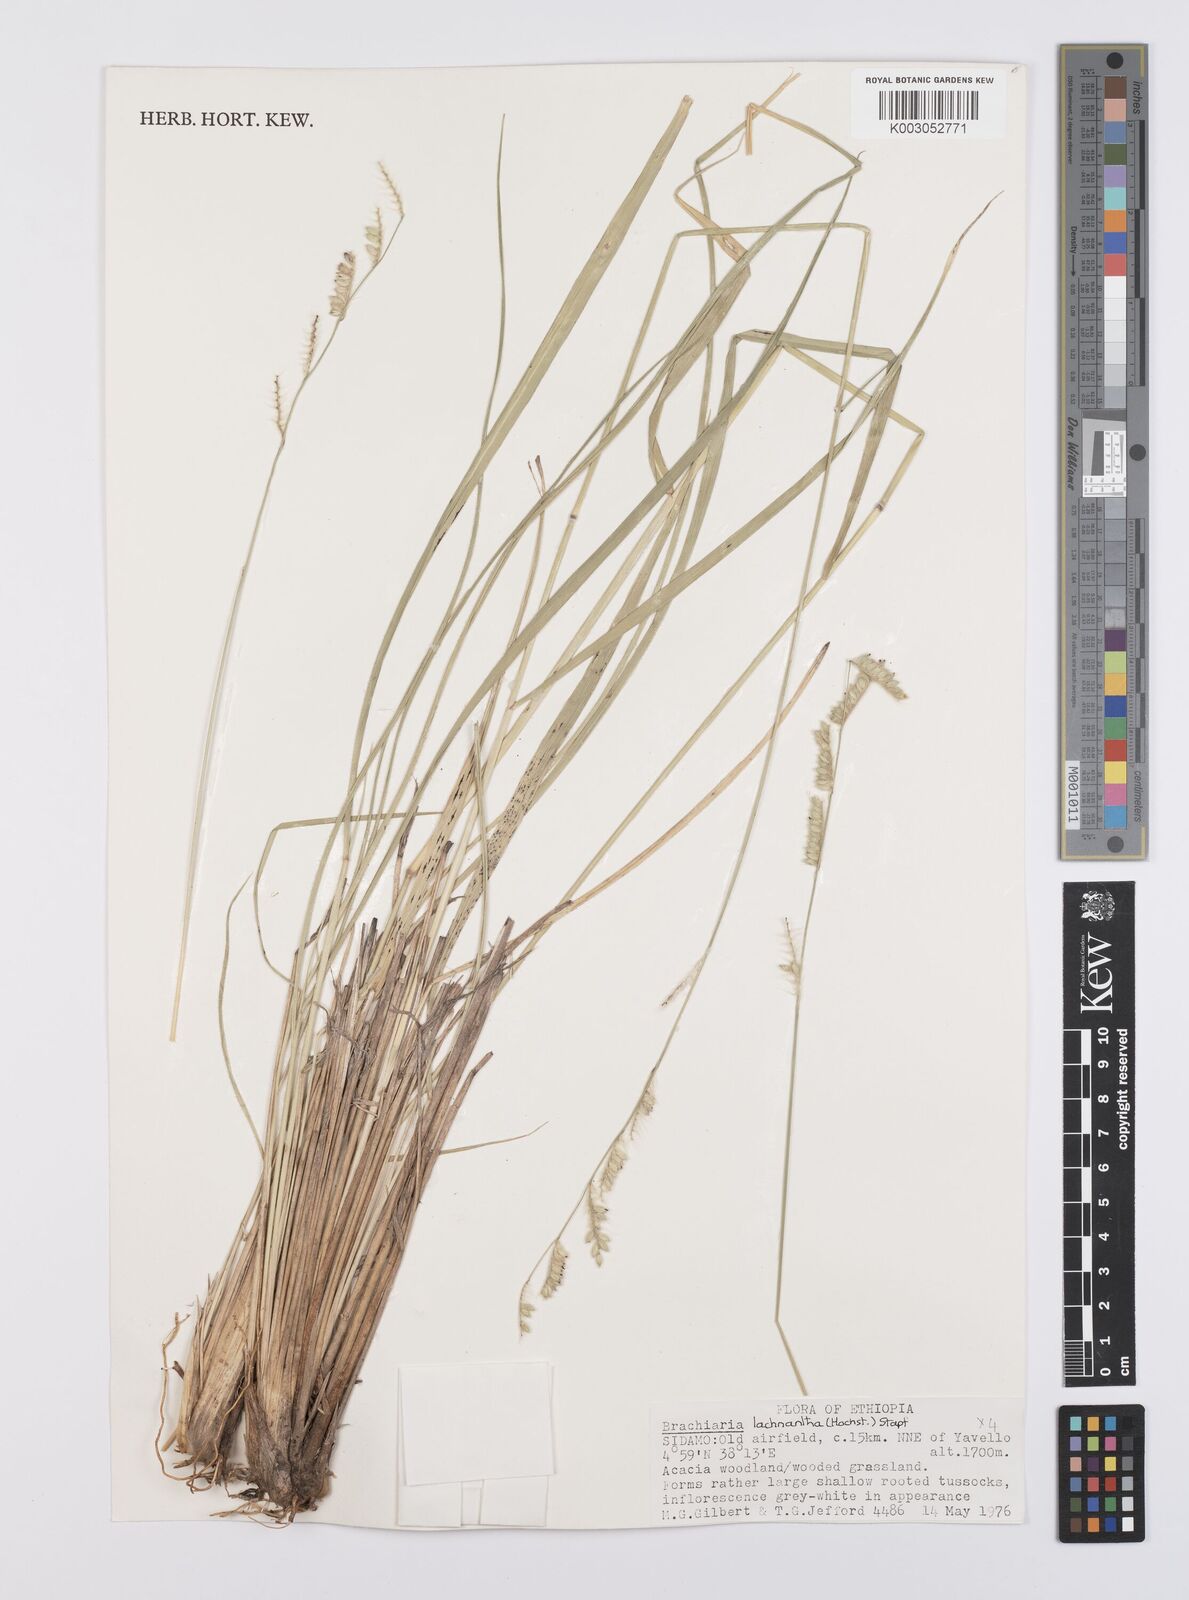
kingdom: Plantae
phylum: Tracheophyta
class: Liliopsida
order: Poales
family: Poaceae
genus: Urochloa
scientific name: Urochloa lachnantha
